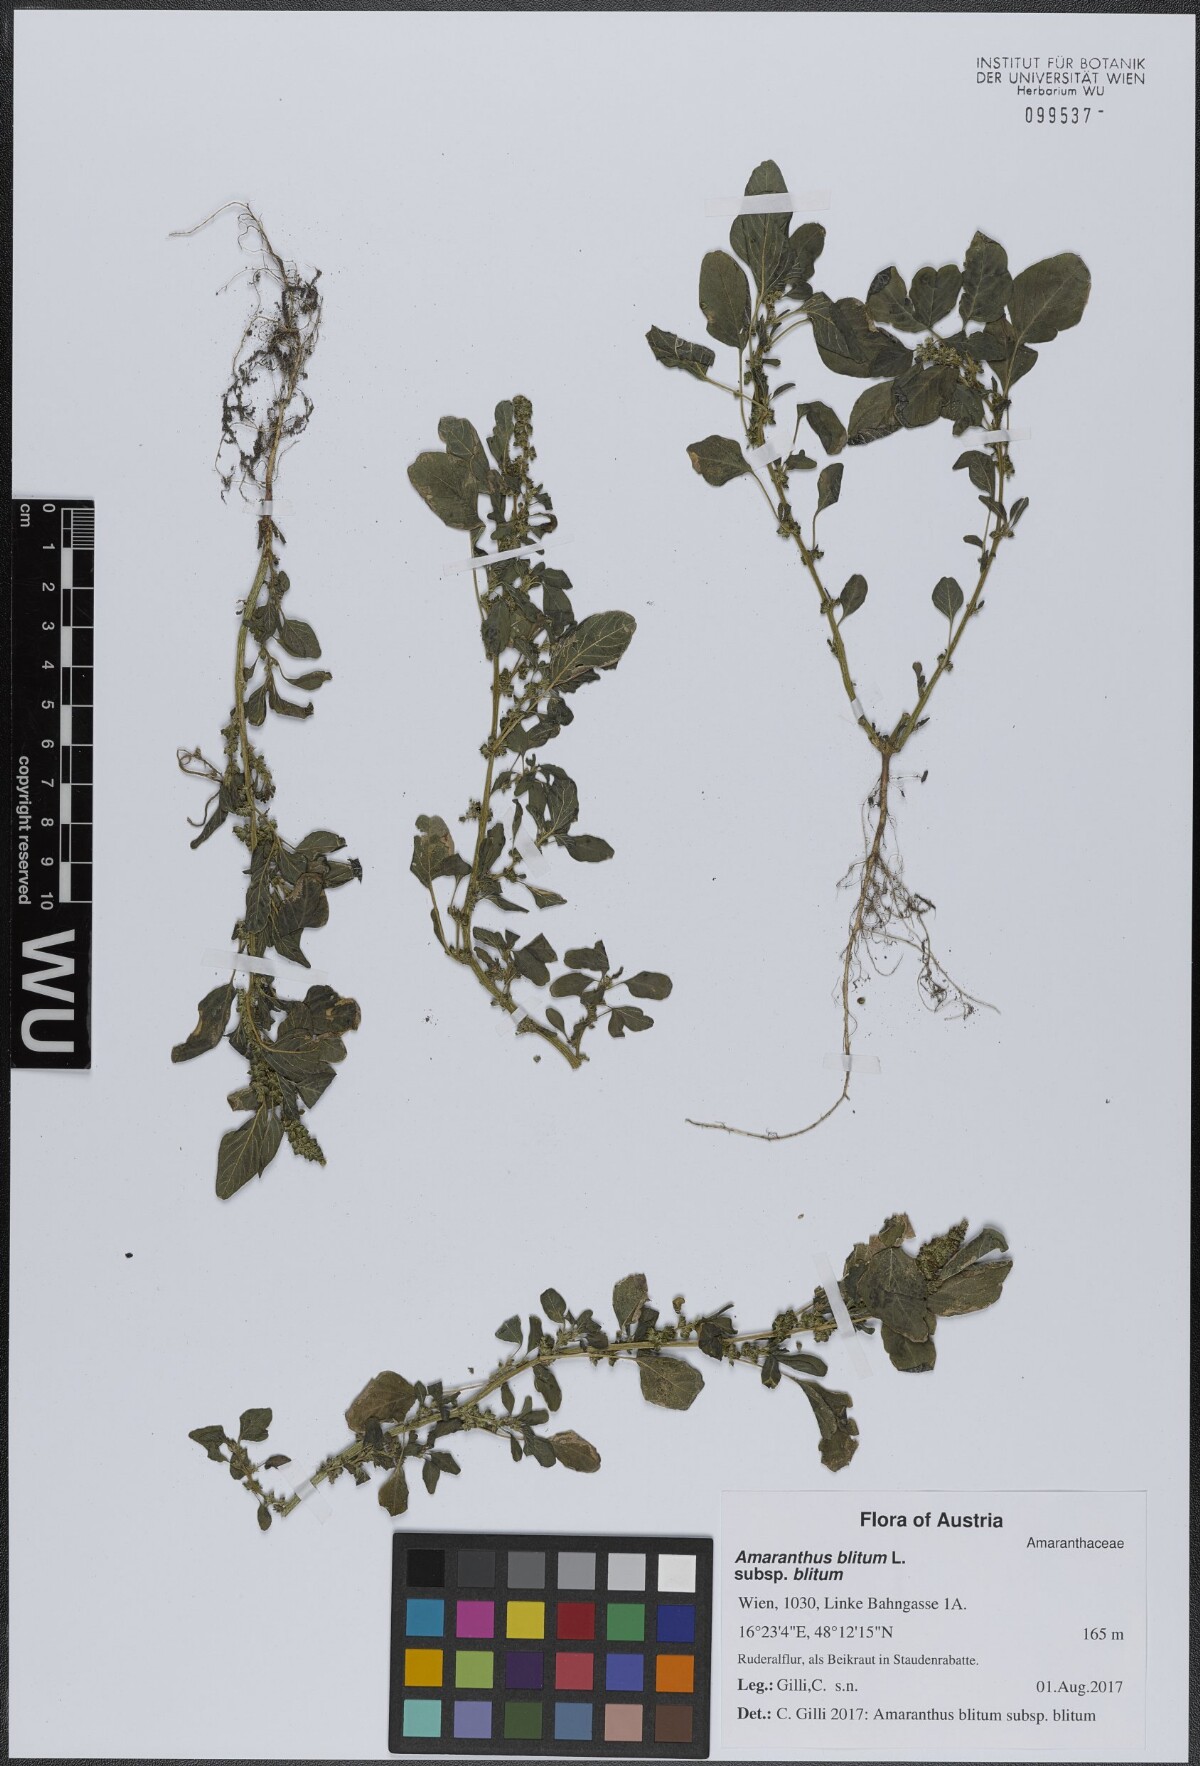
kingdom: Plantae
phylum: Tracheophyta
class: Magnoliopsida
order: Caryophyllales
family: Amaranthaceae
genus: Amaranthus
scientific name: Amaranthus blitum
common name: Purple amaranth
